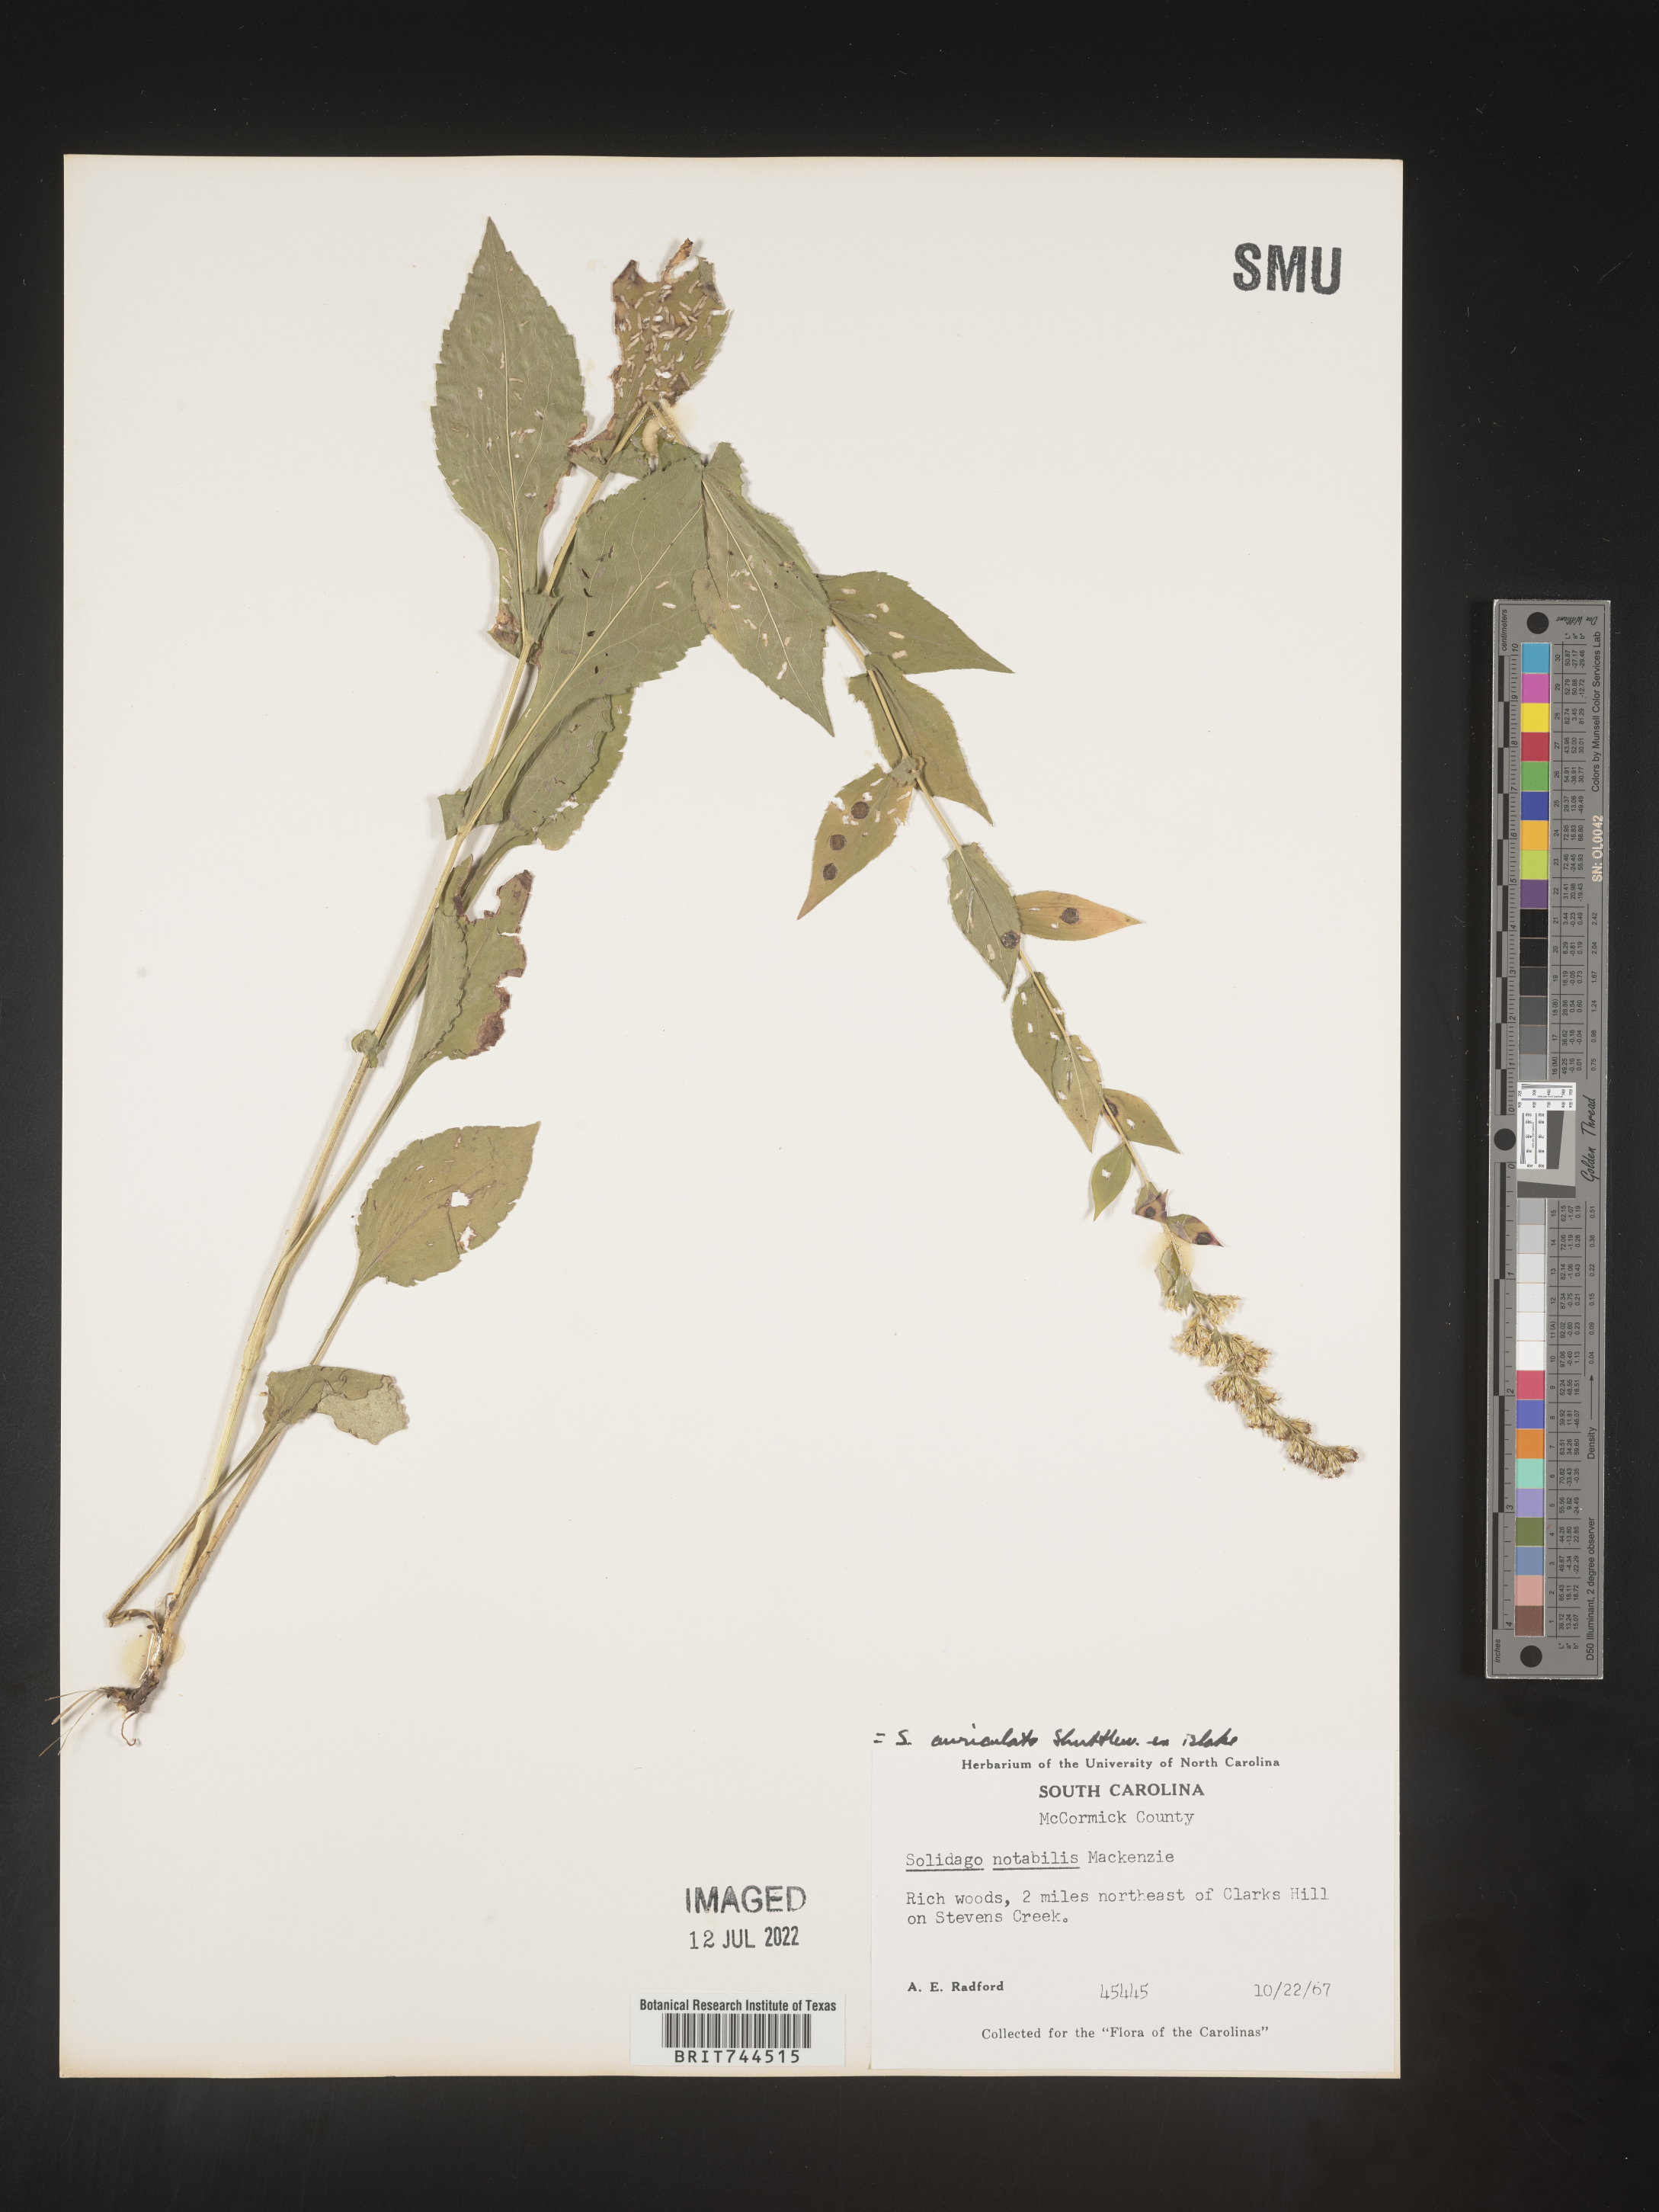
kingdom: Plantae
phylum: Tracheophyta
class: Magnoliopsida
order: Asterales
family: Asteraceae
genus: Solidago
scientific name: Solidago auriculata
